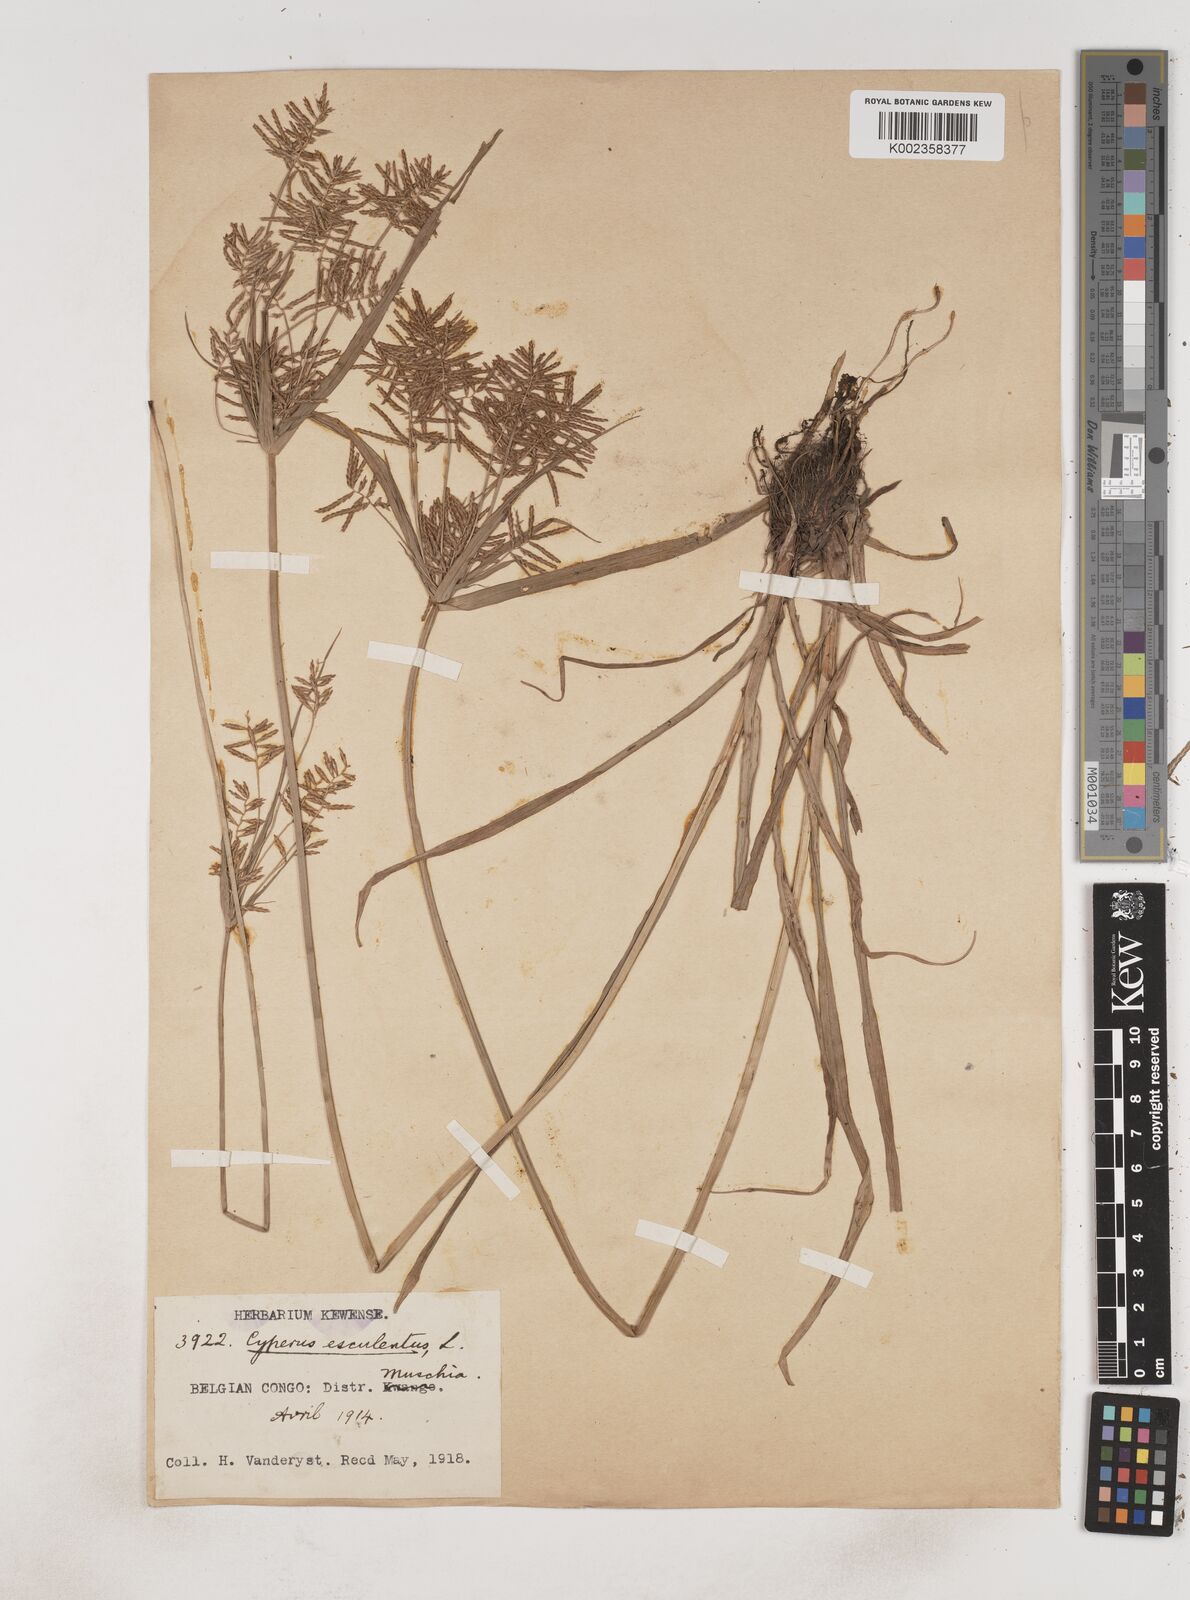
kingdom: Plantae
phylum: Tracheophyta
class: Liliopsida
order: Poales
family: Cyperaceae
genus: Cyperus
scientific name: Cyperus esculentus
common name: Yellow nutsedge
